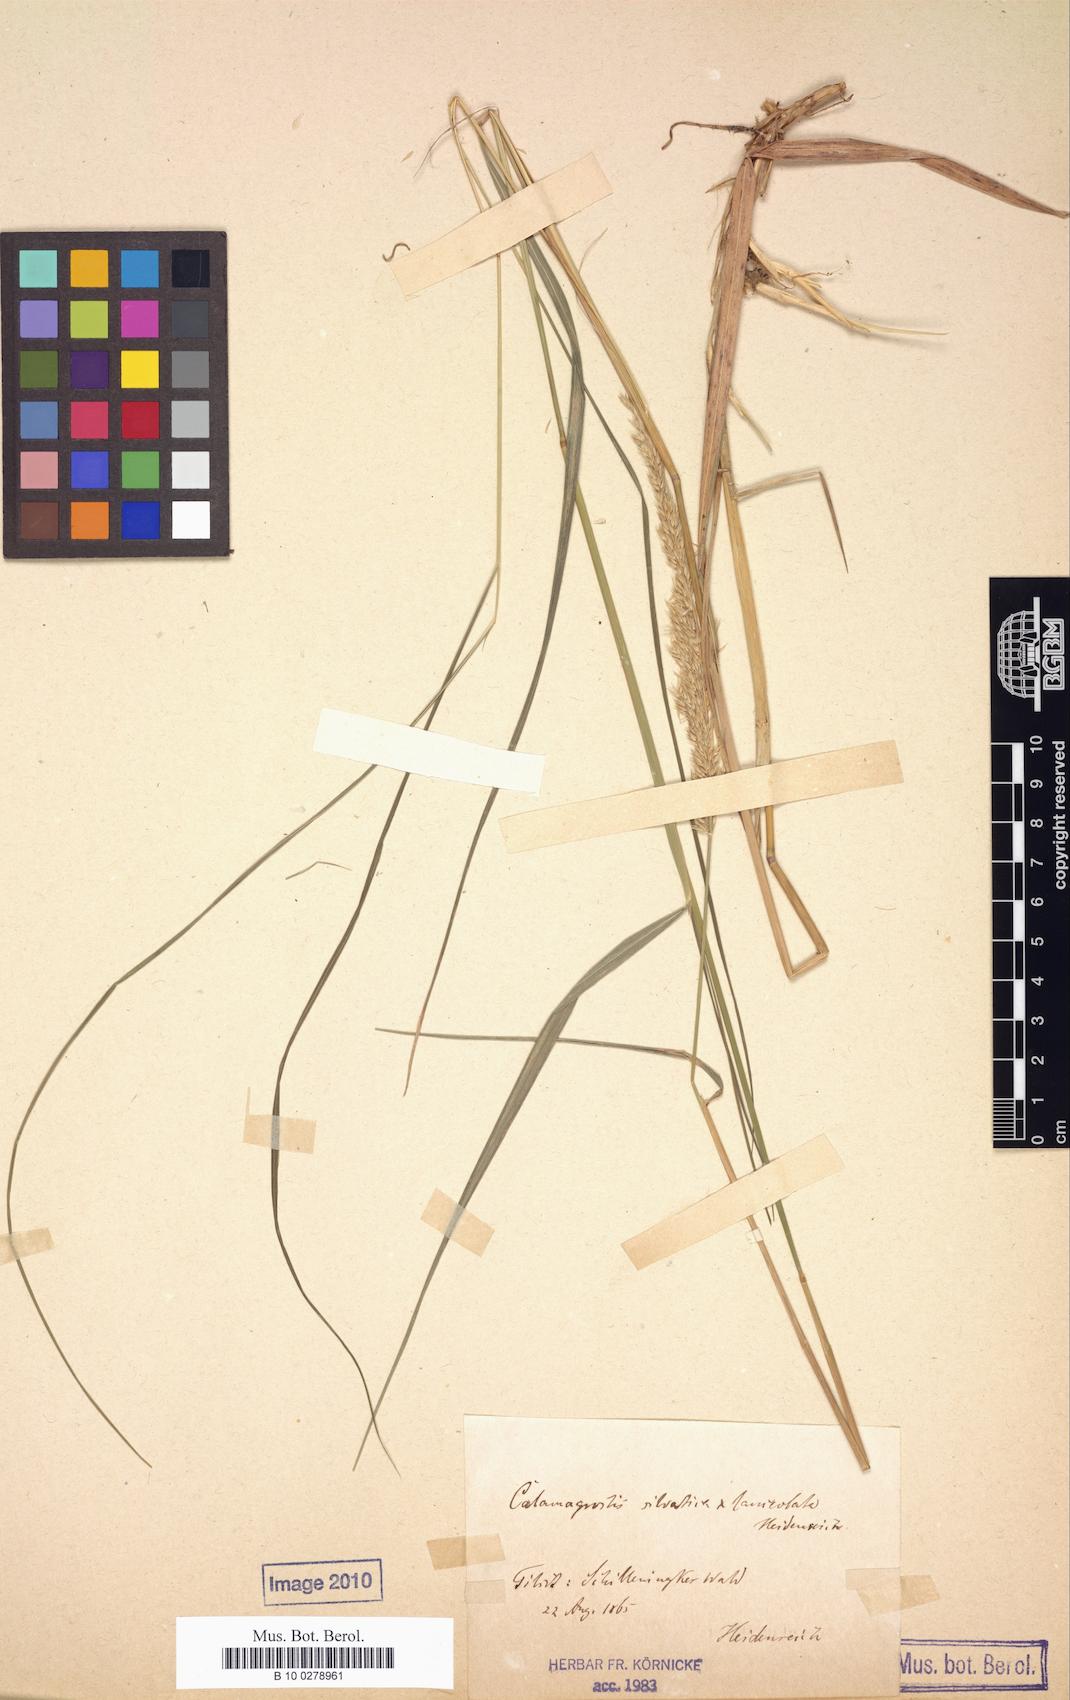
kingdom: Plantae
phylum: Tracheophyta
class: Liliopsida
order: Poales
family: Poaceae
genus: Calamagrostis
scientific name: Calamagrostis villosa
